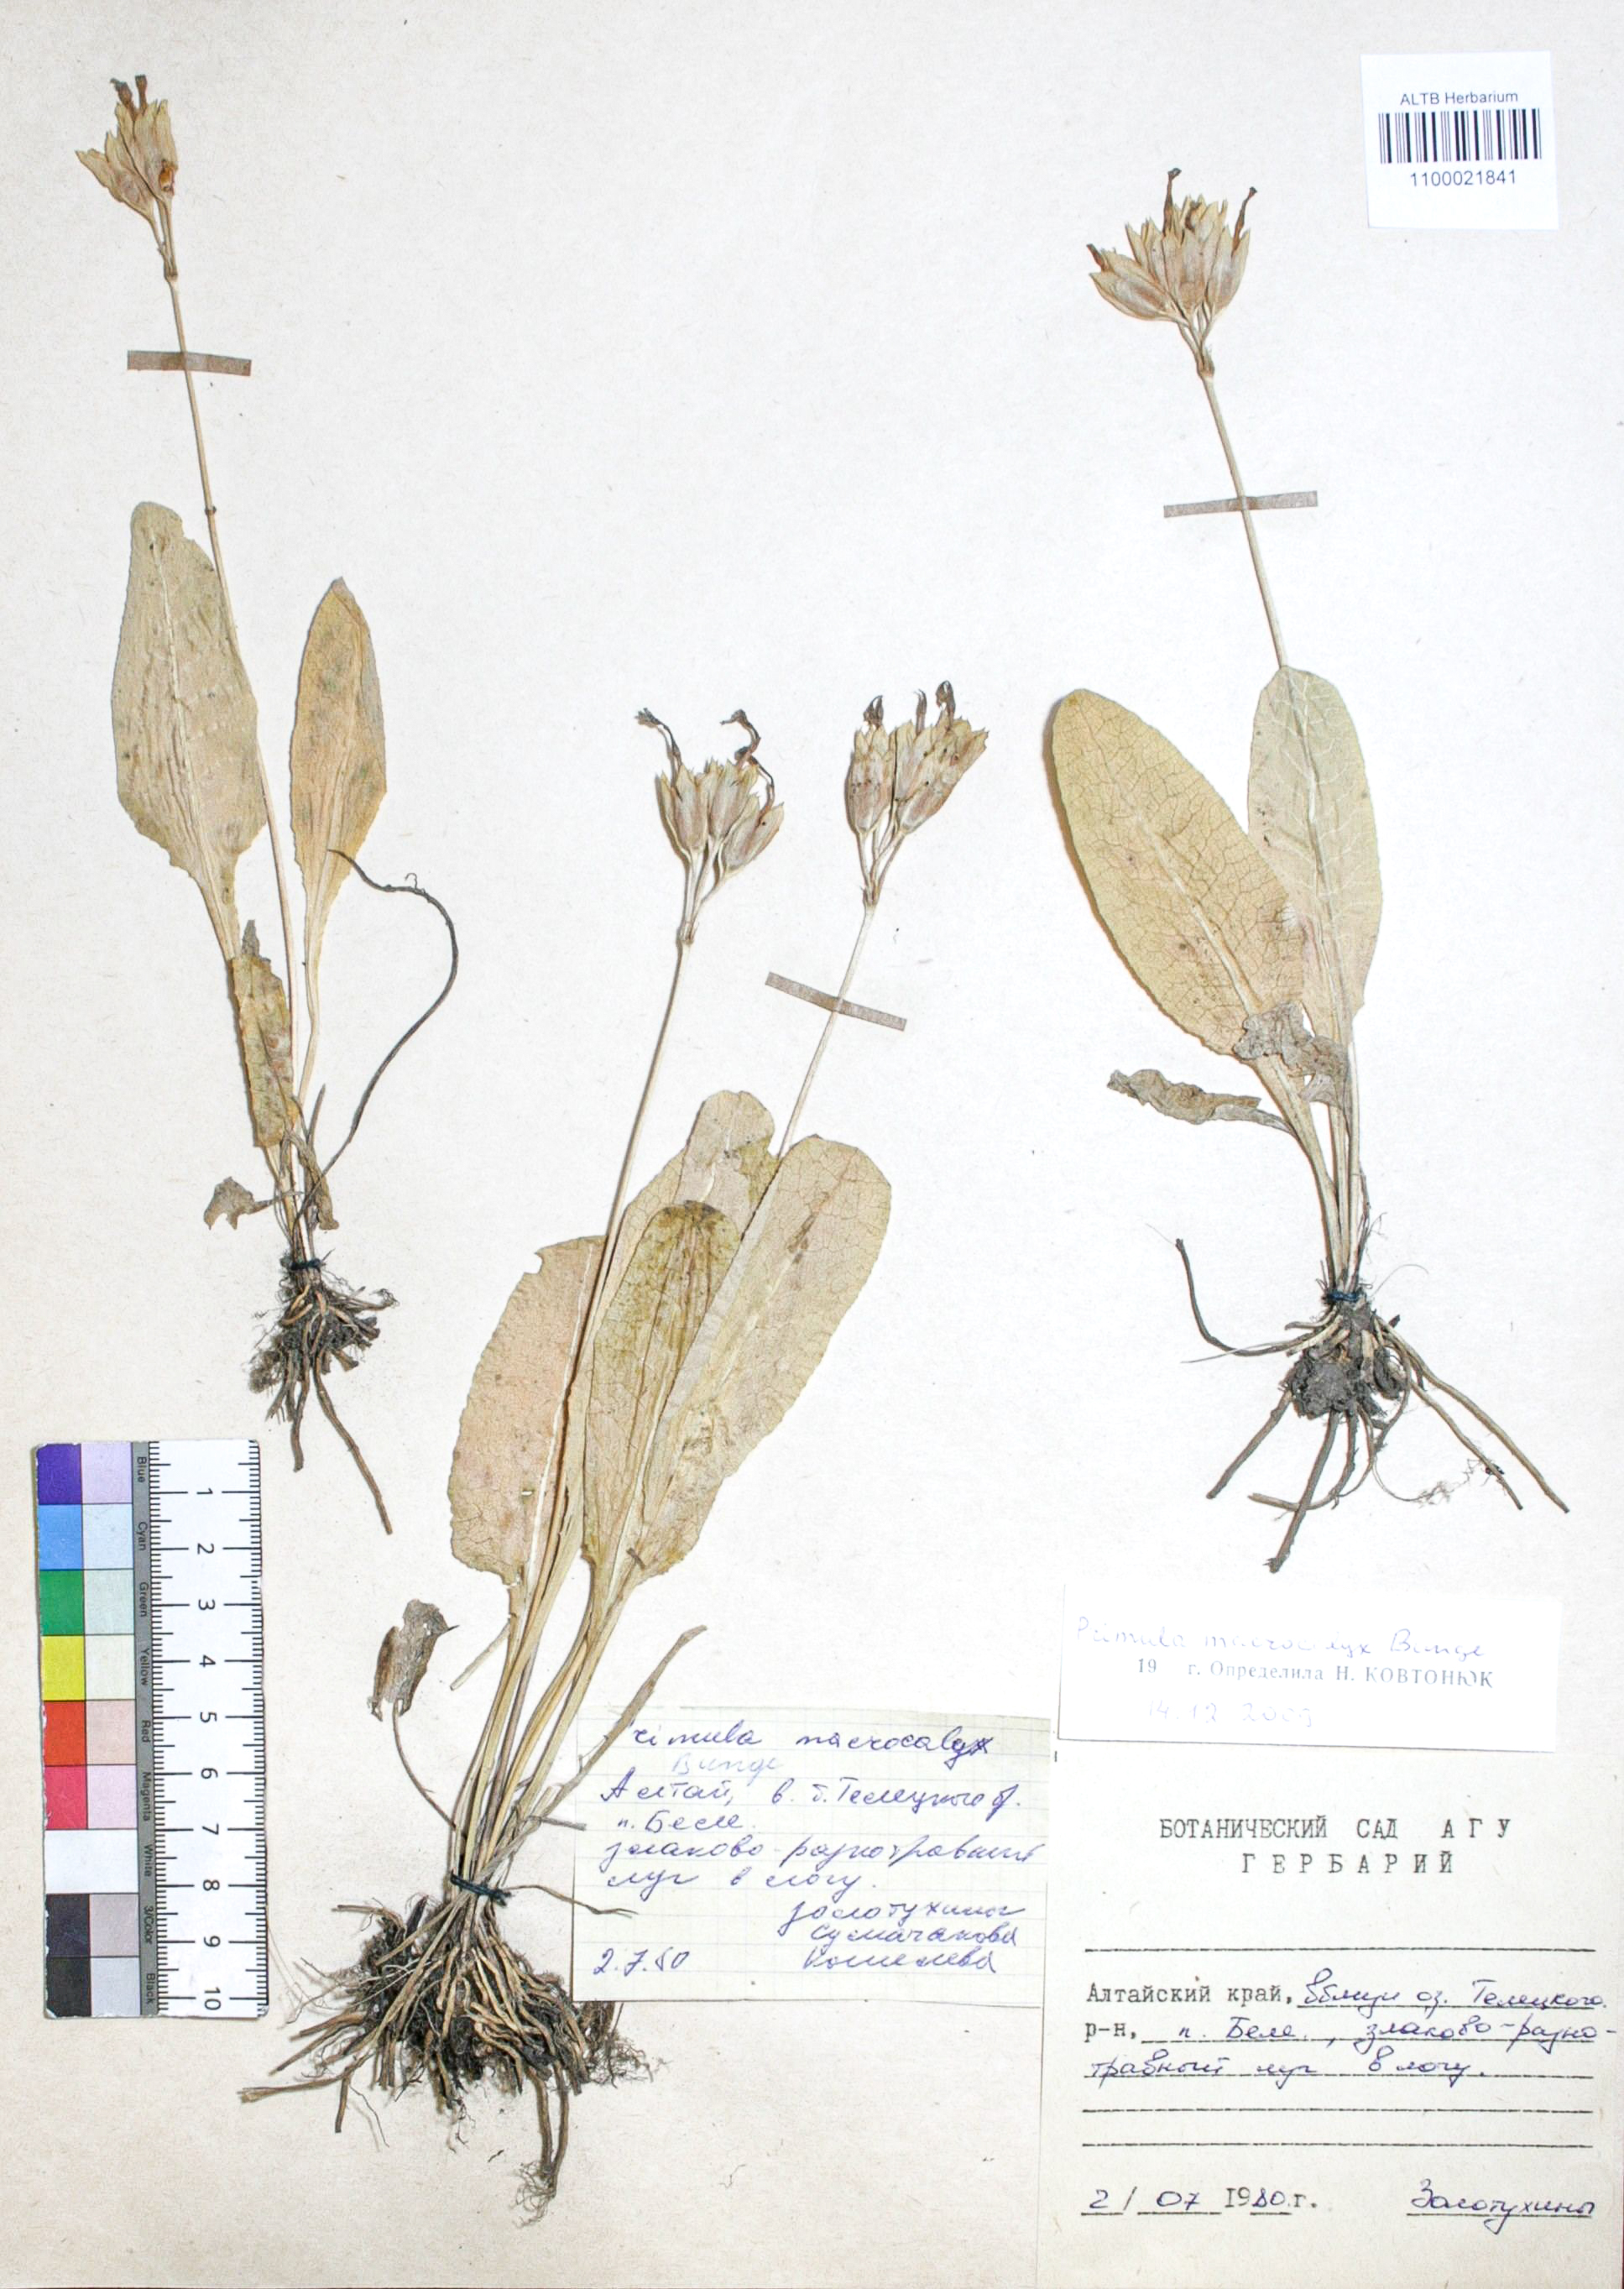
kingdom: Plantae
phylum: Tracheophyta
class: Magnoliopsida
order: Ericales
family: Primulaceae
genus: Primula
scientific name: Primula veris
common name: Cowslip
